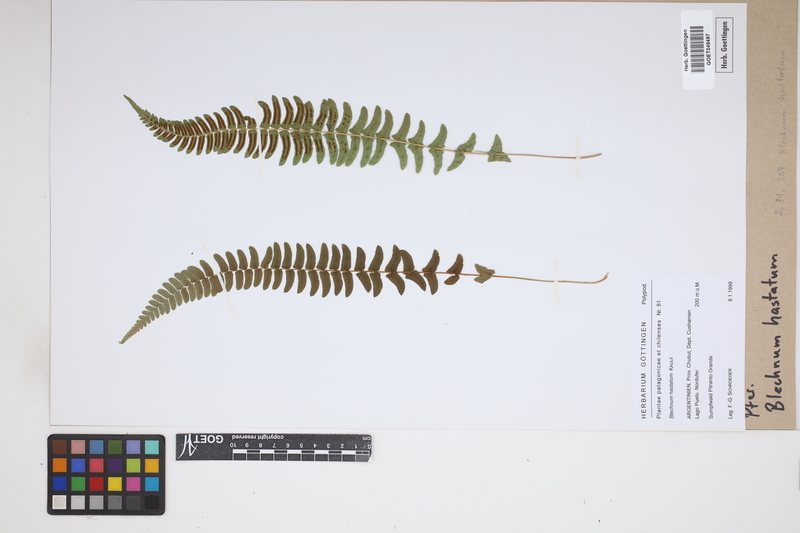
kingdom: Plantae
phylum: Tracheophyta
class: Polypodiopsida
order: Polypodiales
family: Blechnaceae
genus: Blechnum
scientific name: Blechnum hastatum
